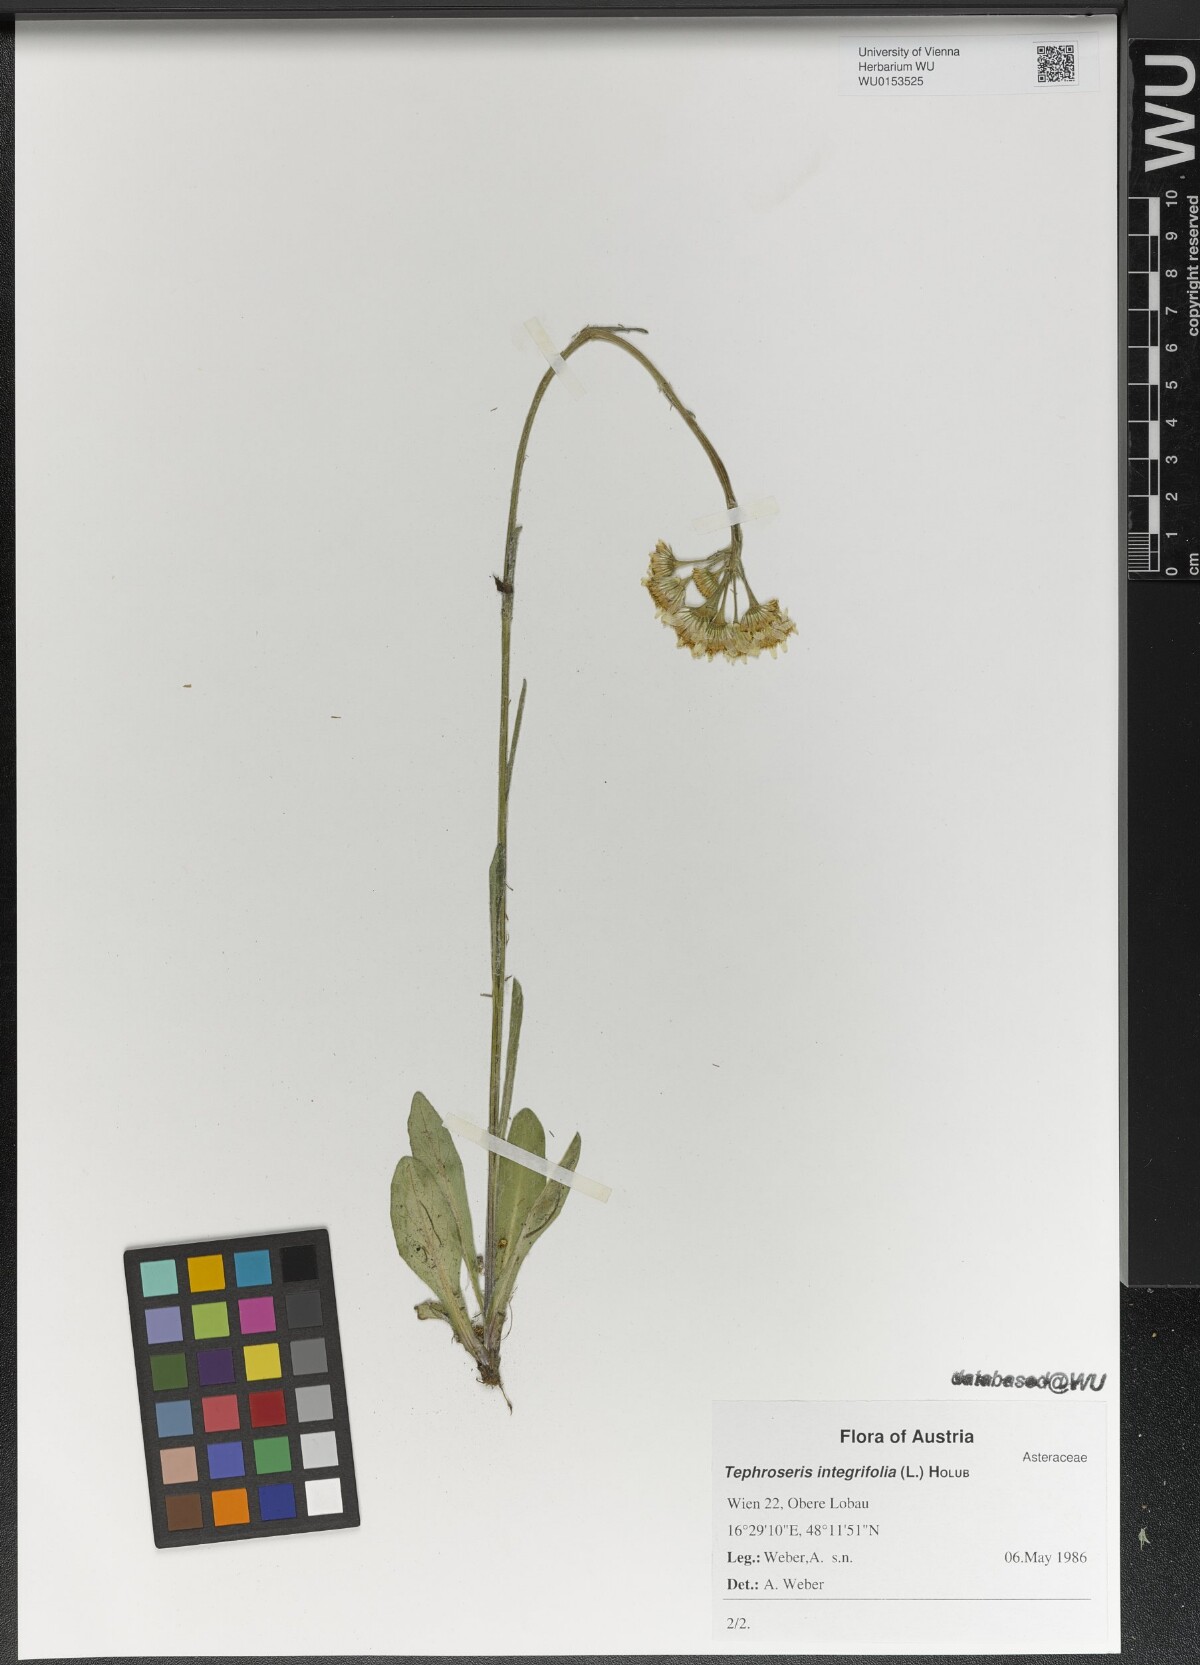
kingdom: Plantae
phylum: Tracheophyta
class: Magnoliopsida
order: Asterales
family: Asteraceae
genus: Tephroseris
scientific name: Tephroseris integrifolia
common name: Field fleawort
